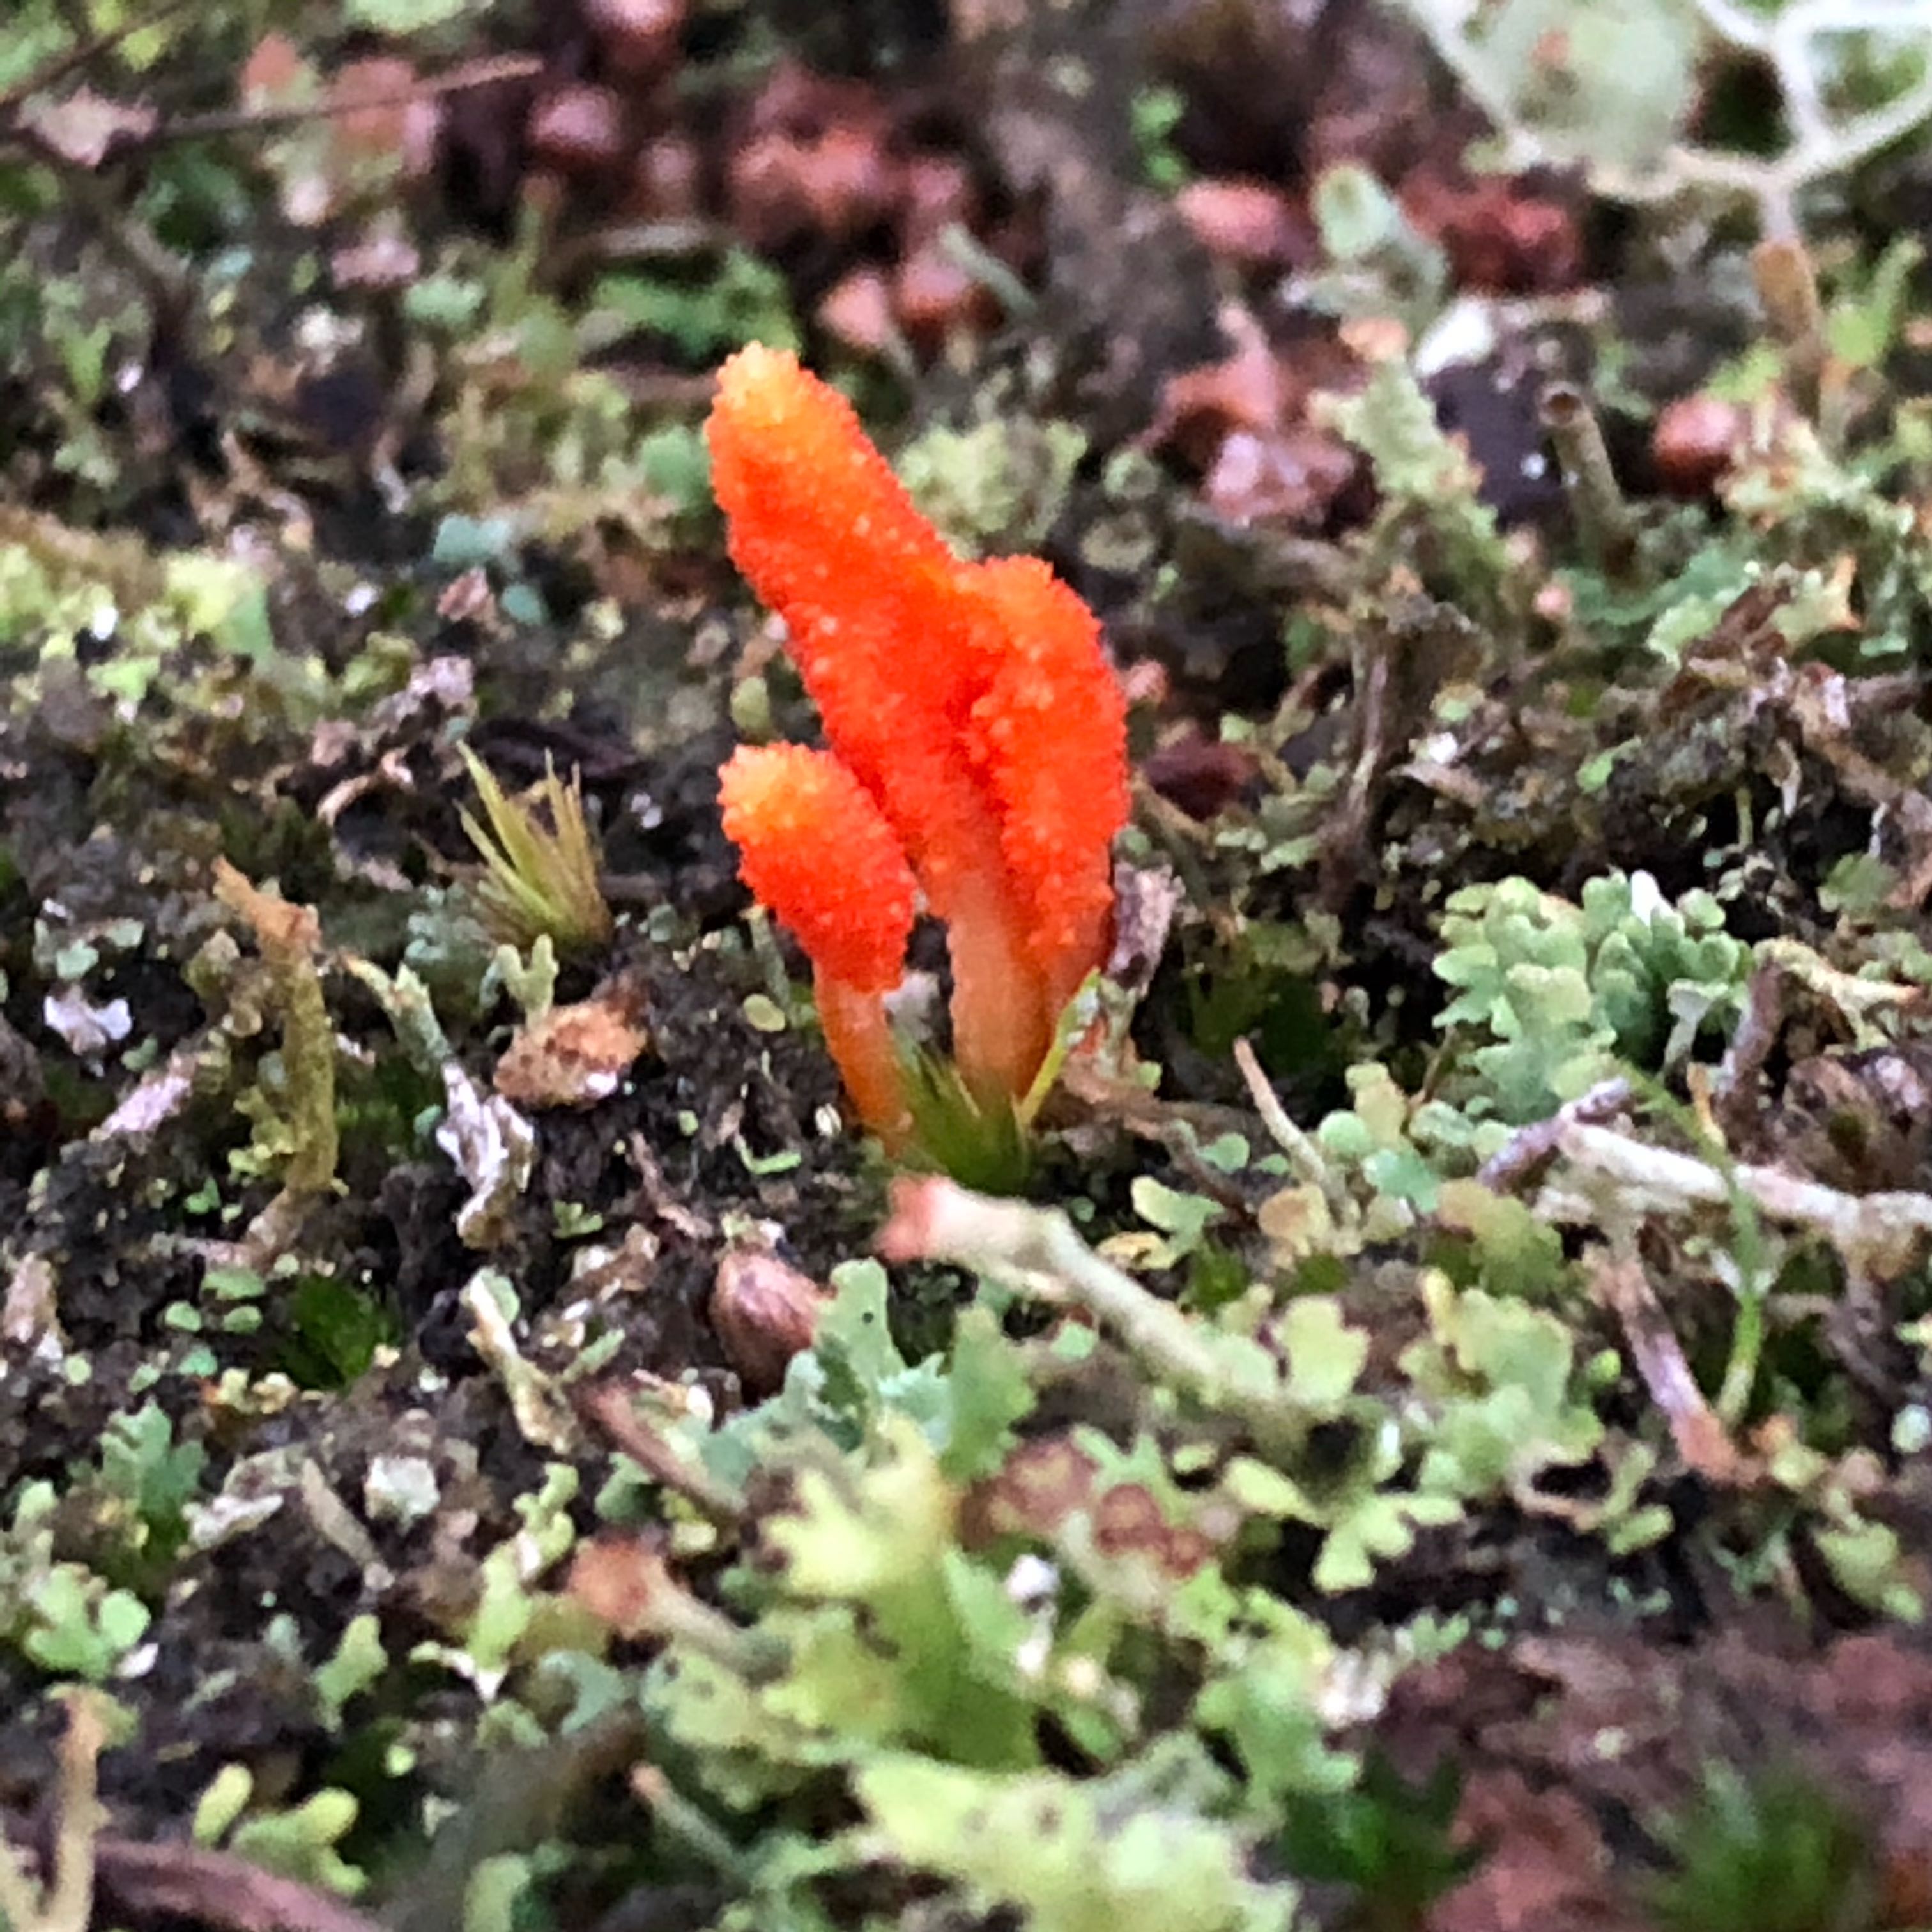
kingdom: Fungi
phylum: Ascomycota
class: Sordariomycetes
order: Hypocreales
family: Cordycipitaceae
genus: Cordyceps
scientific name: Cordyceps militaris
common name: puppe-snyltekølle
